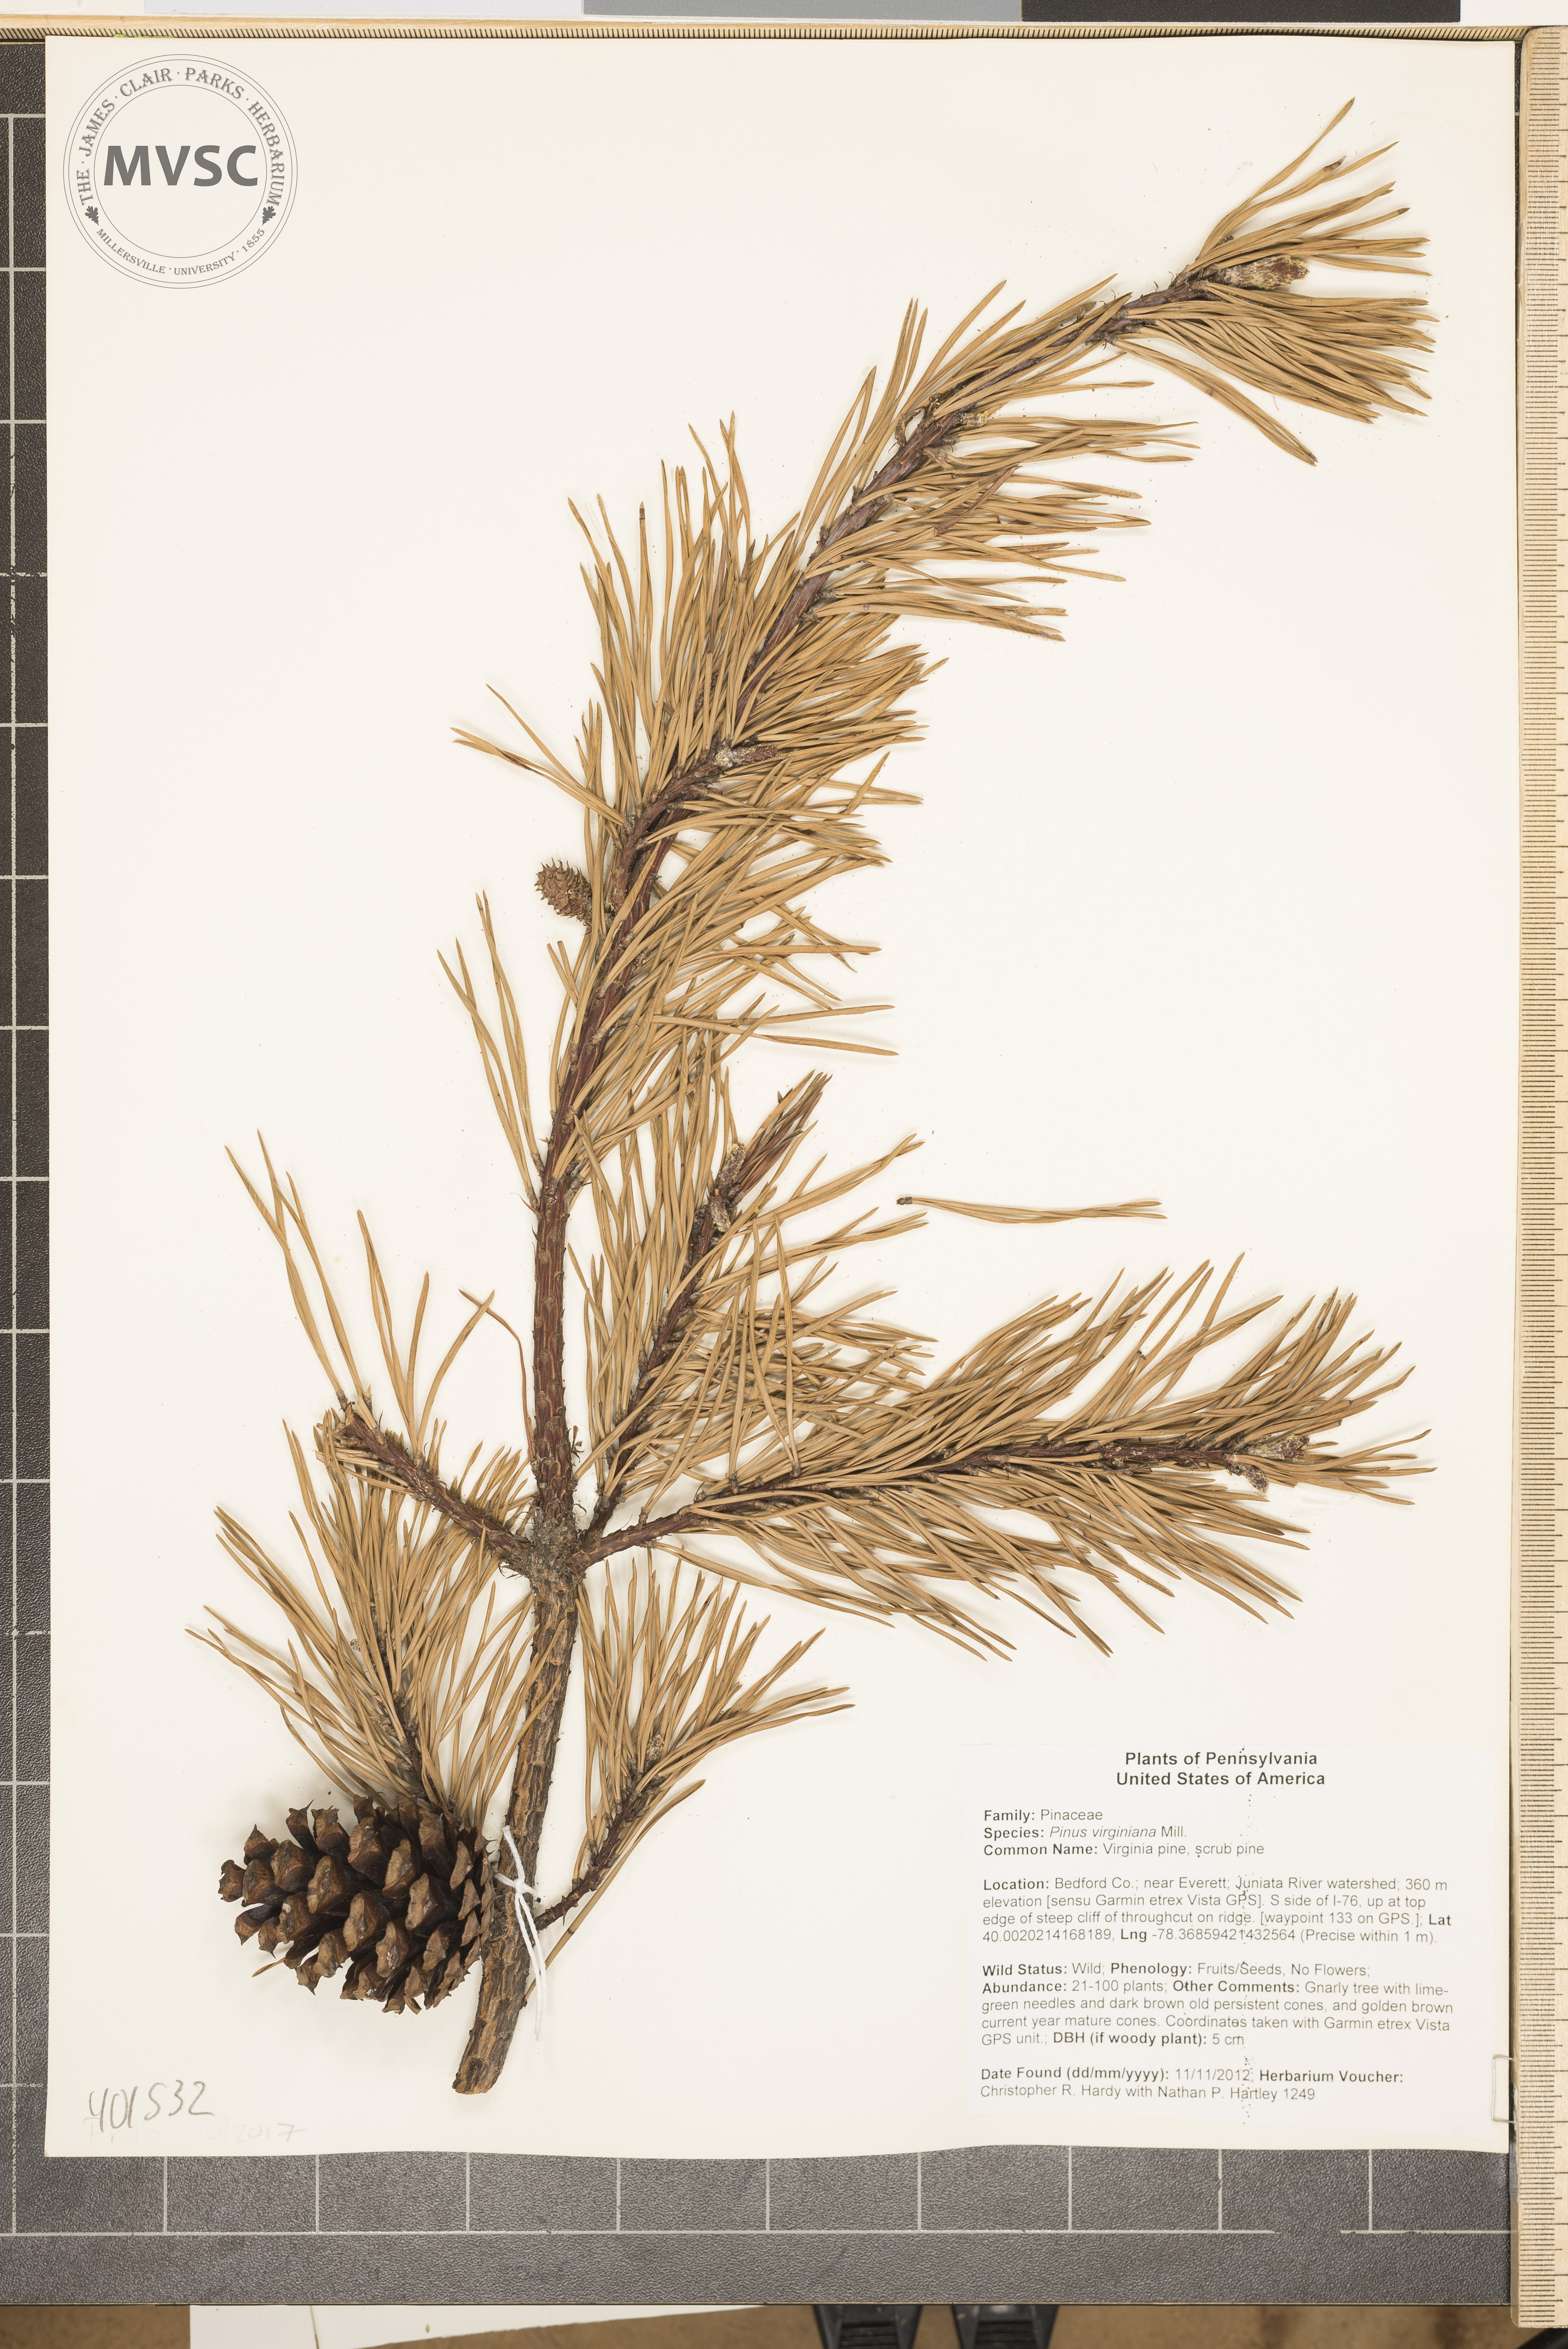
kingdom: Plantae
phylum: Tracheophyta
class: Pinopsida
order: Pinales
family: Pinaceae
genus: Pinus
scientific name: Pinus virginiana
